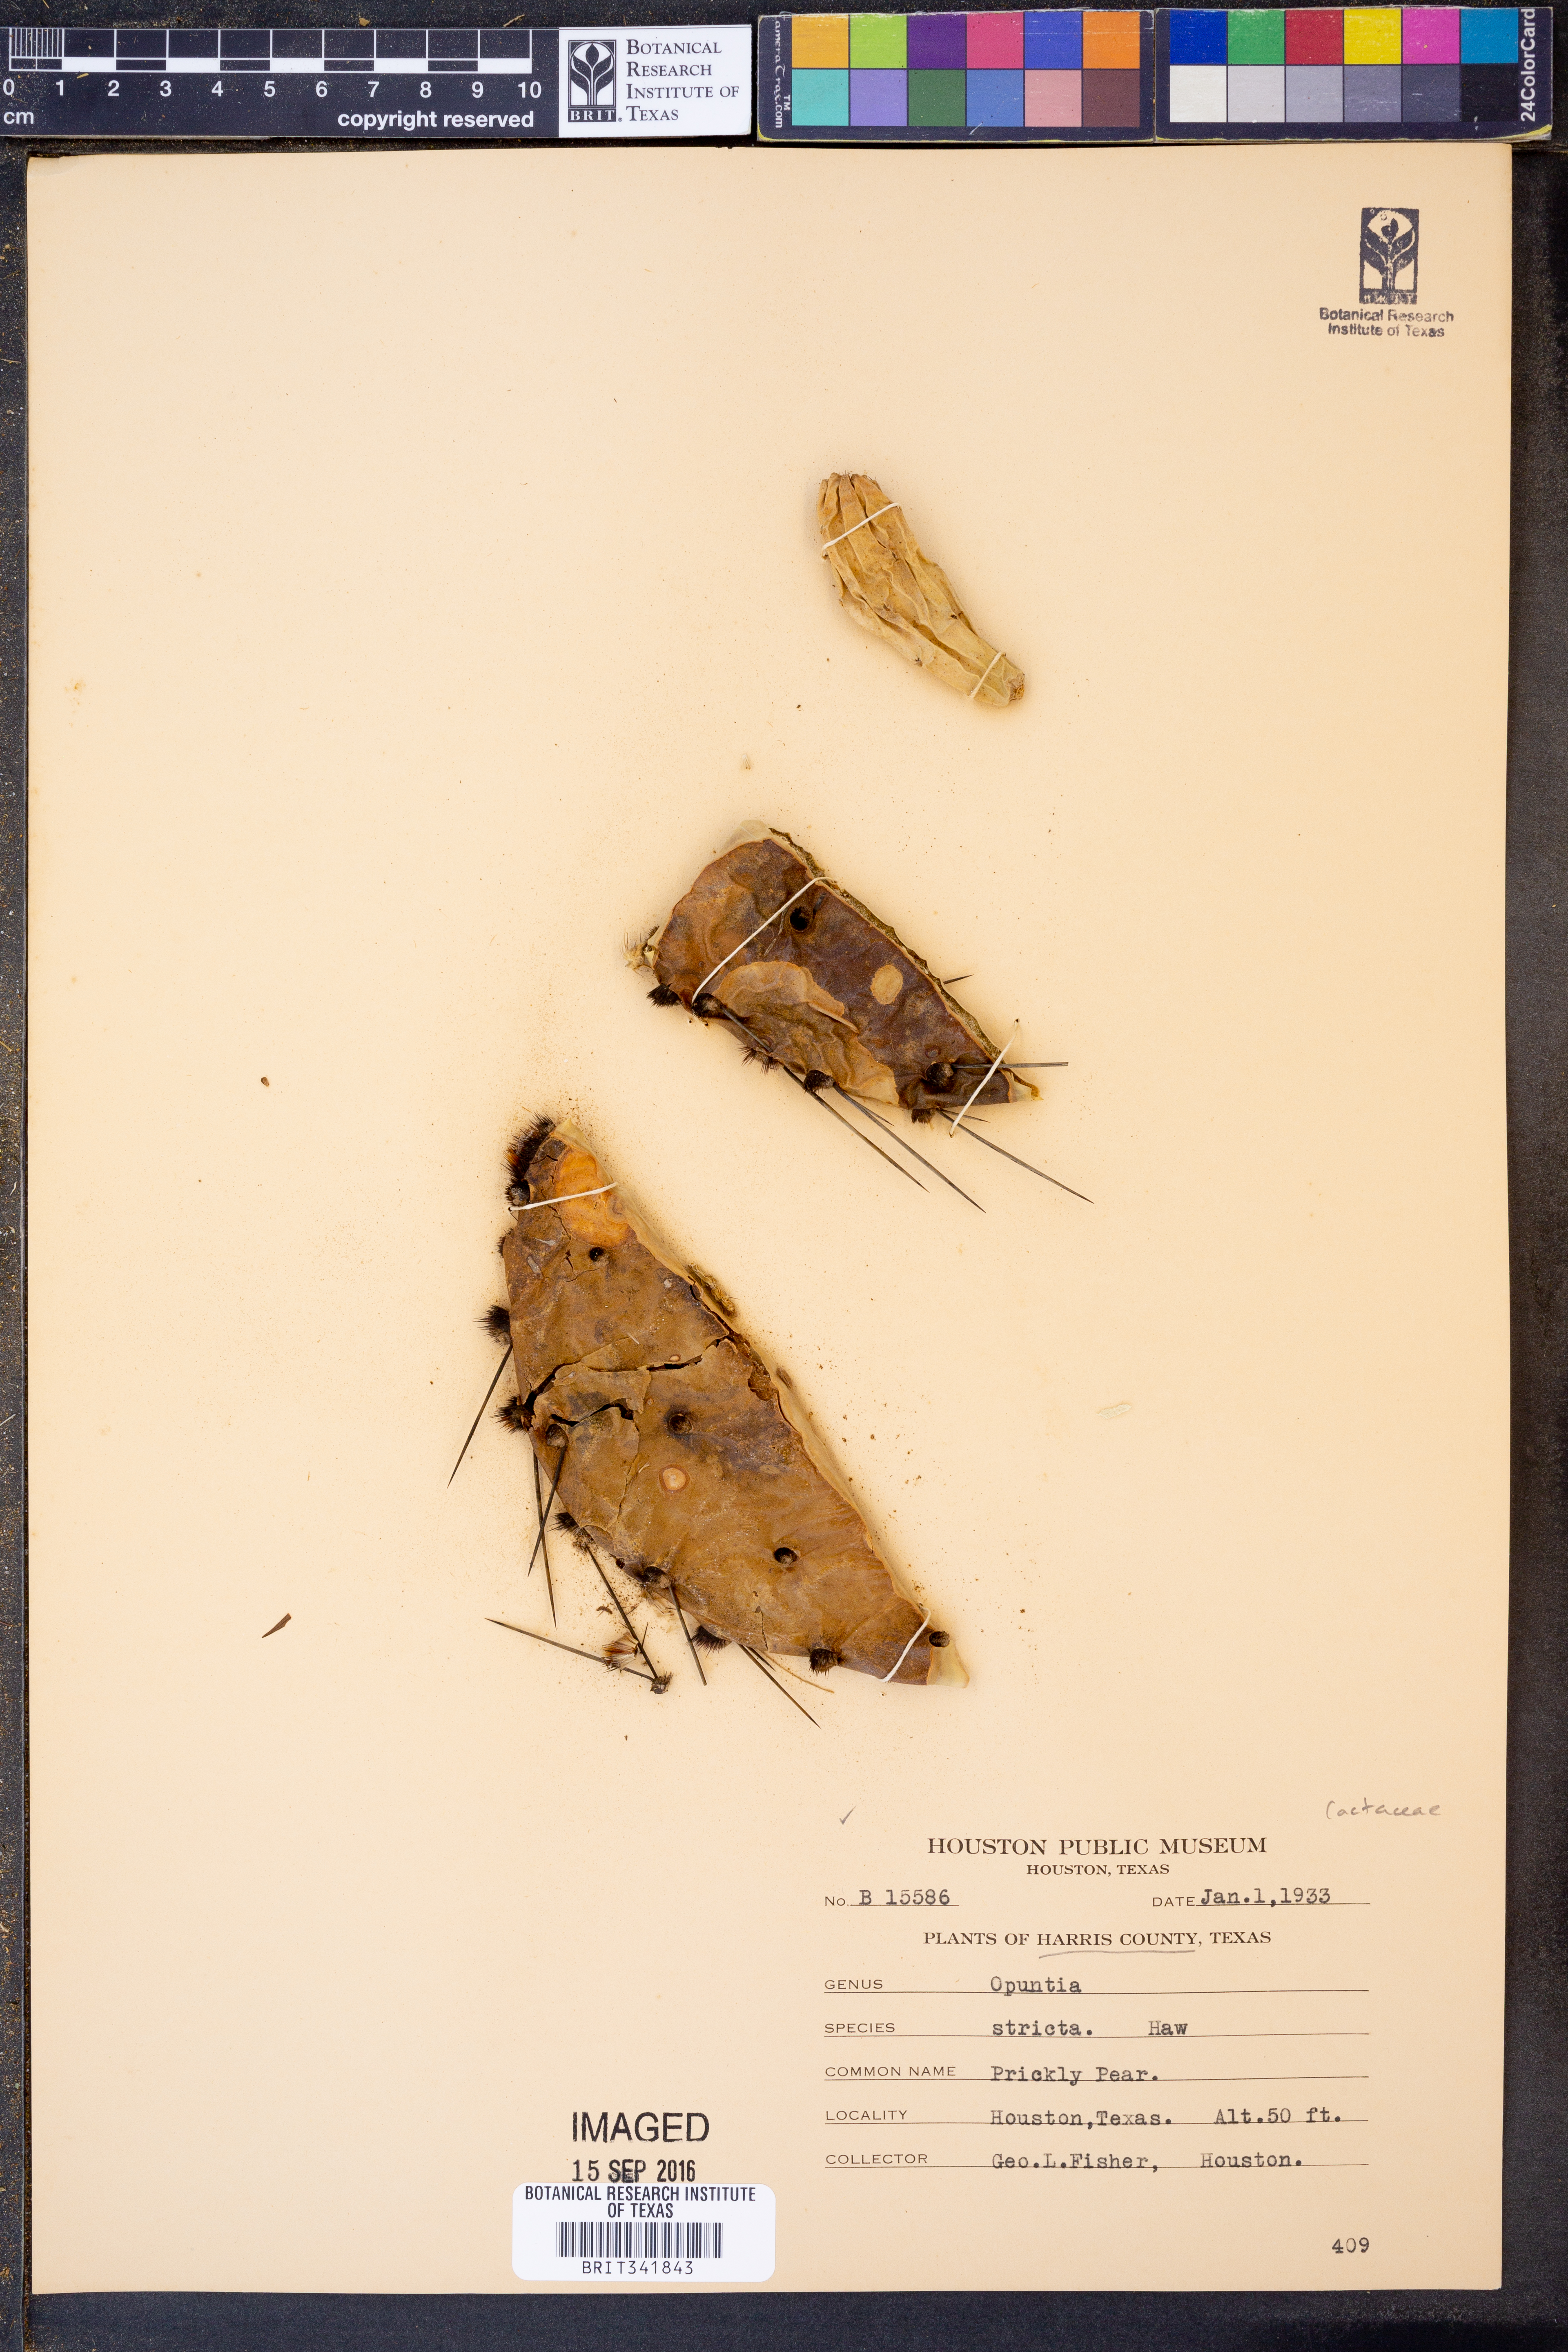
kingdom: Plantae
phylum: Tracheophyta
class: Magnoliopsida
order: Caryophyllales
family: Cactaceae
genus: Opuntia
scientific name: Opuntia stricta
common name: Erect pricklypear
